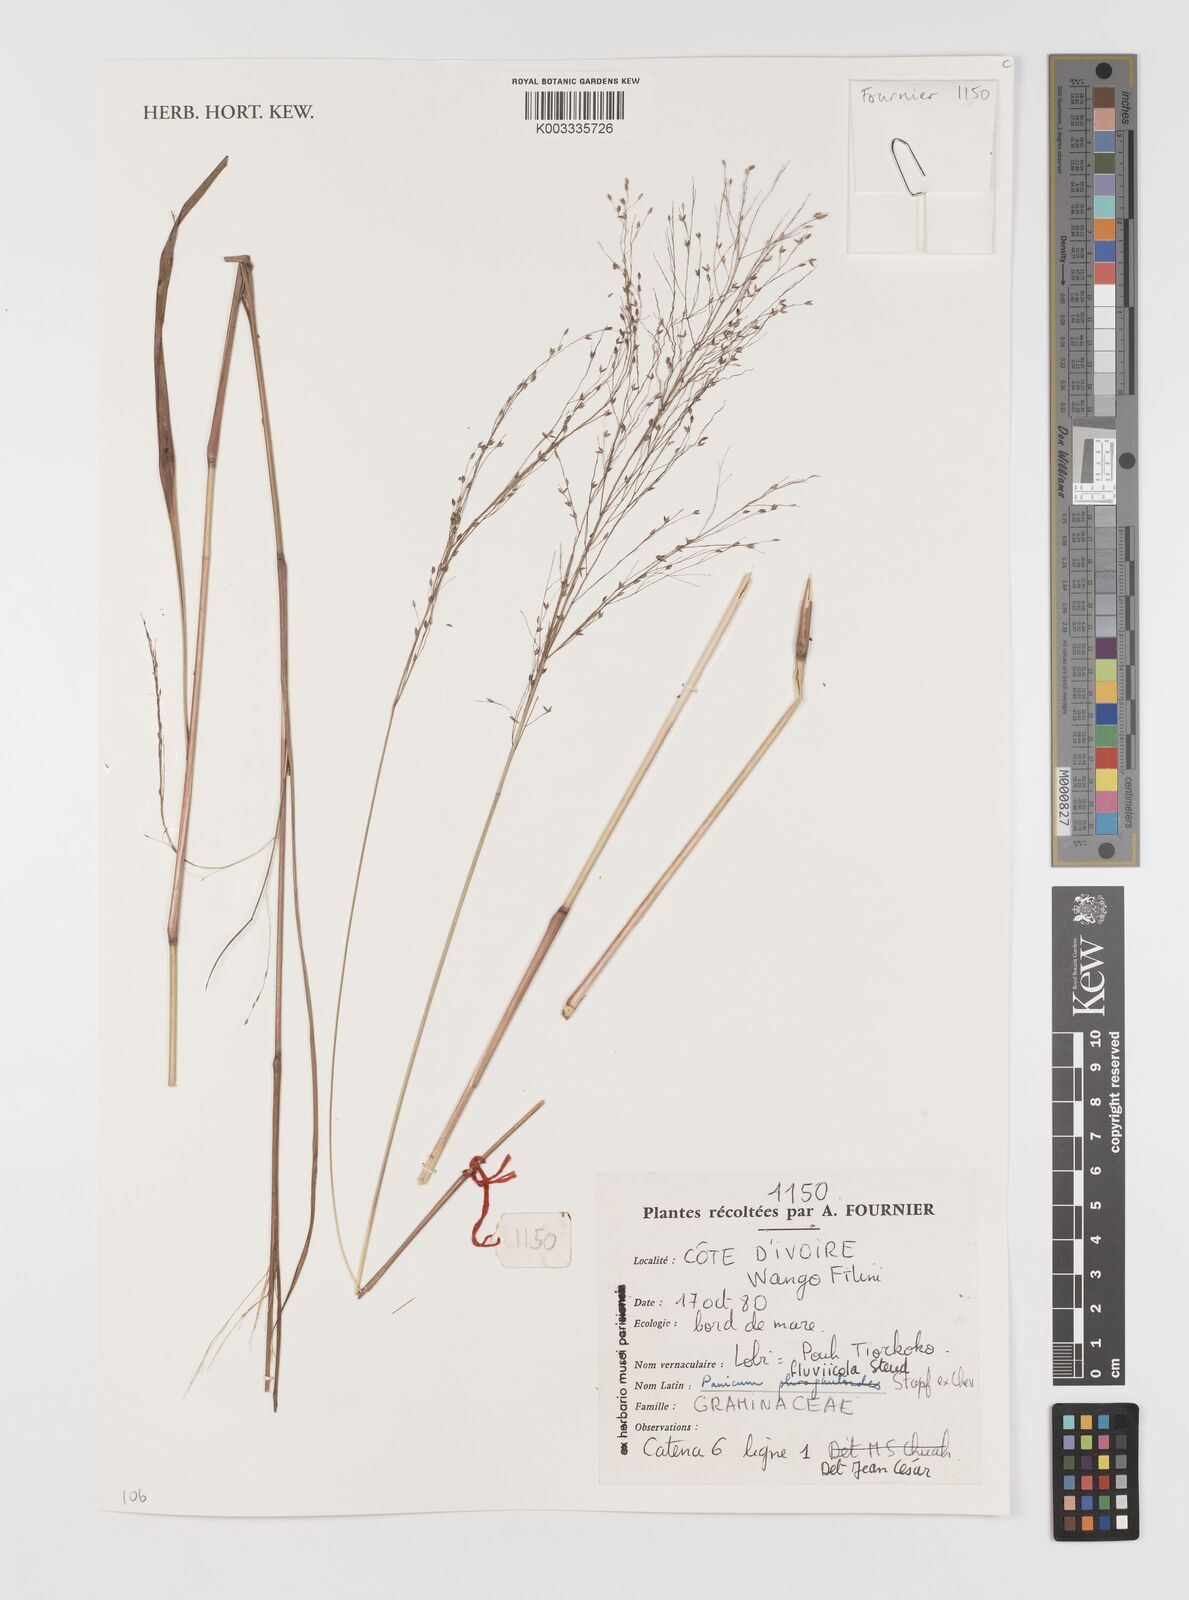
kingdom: Plantae
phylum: Tracheophyta
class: Liliopsida
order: Poales
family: Poaceae
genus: Panicum
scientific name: Panicum fluviicola
